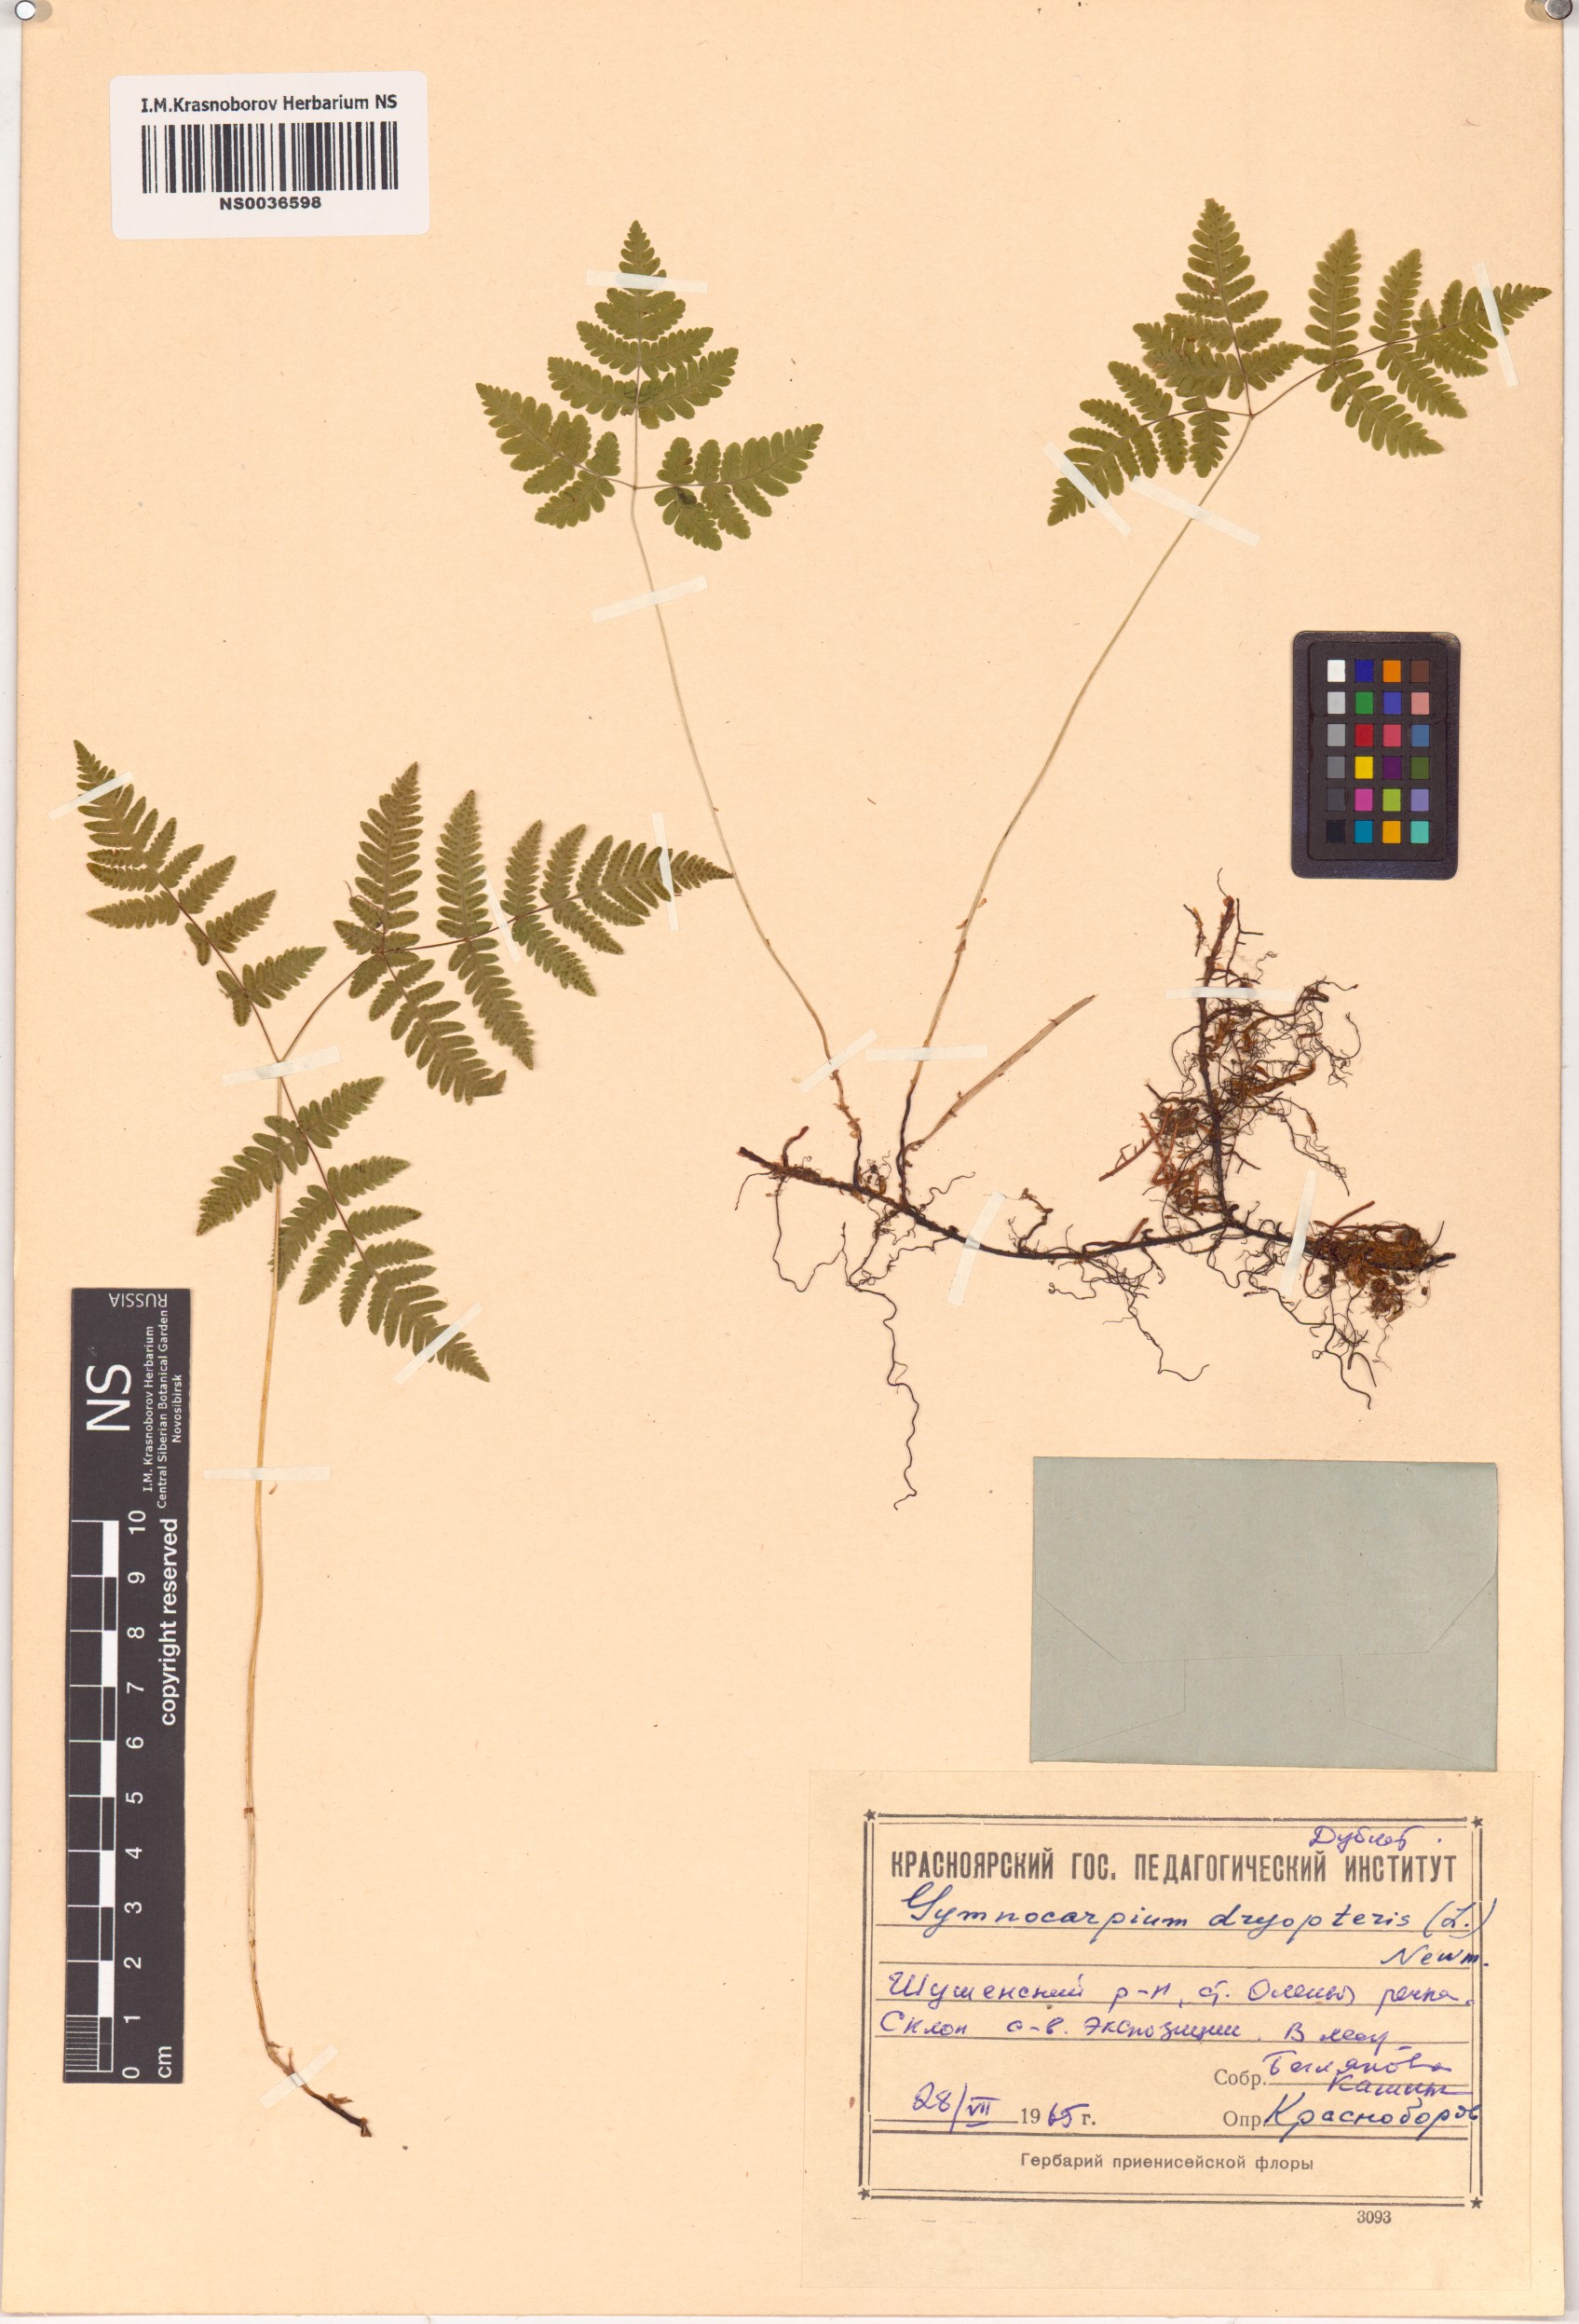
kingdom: Plantae
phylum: Tracheophyta
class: Polypodiopsida
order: Polypodiales
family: Cystopteridaceae
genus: Gymnocarpium
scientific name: Gymnocarpium dryopteris
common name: Oak fern
